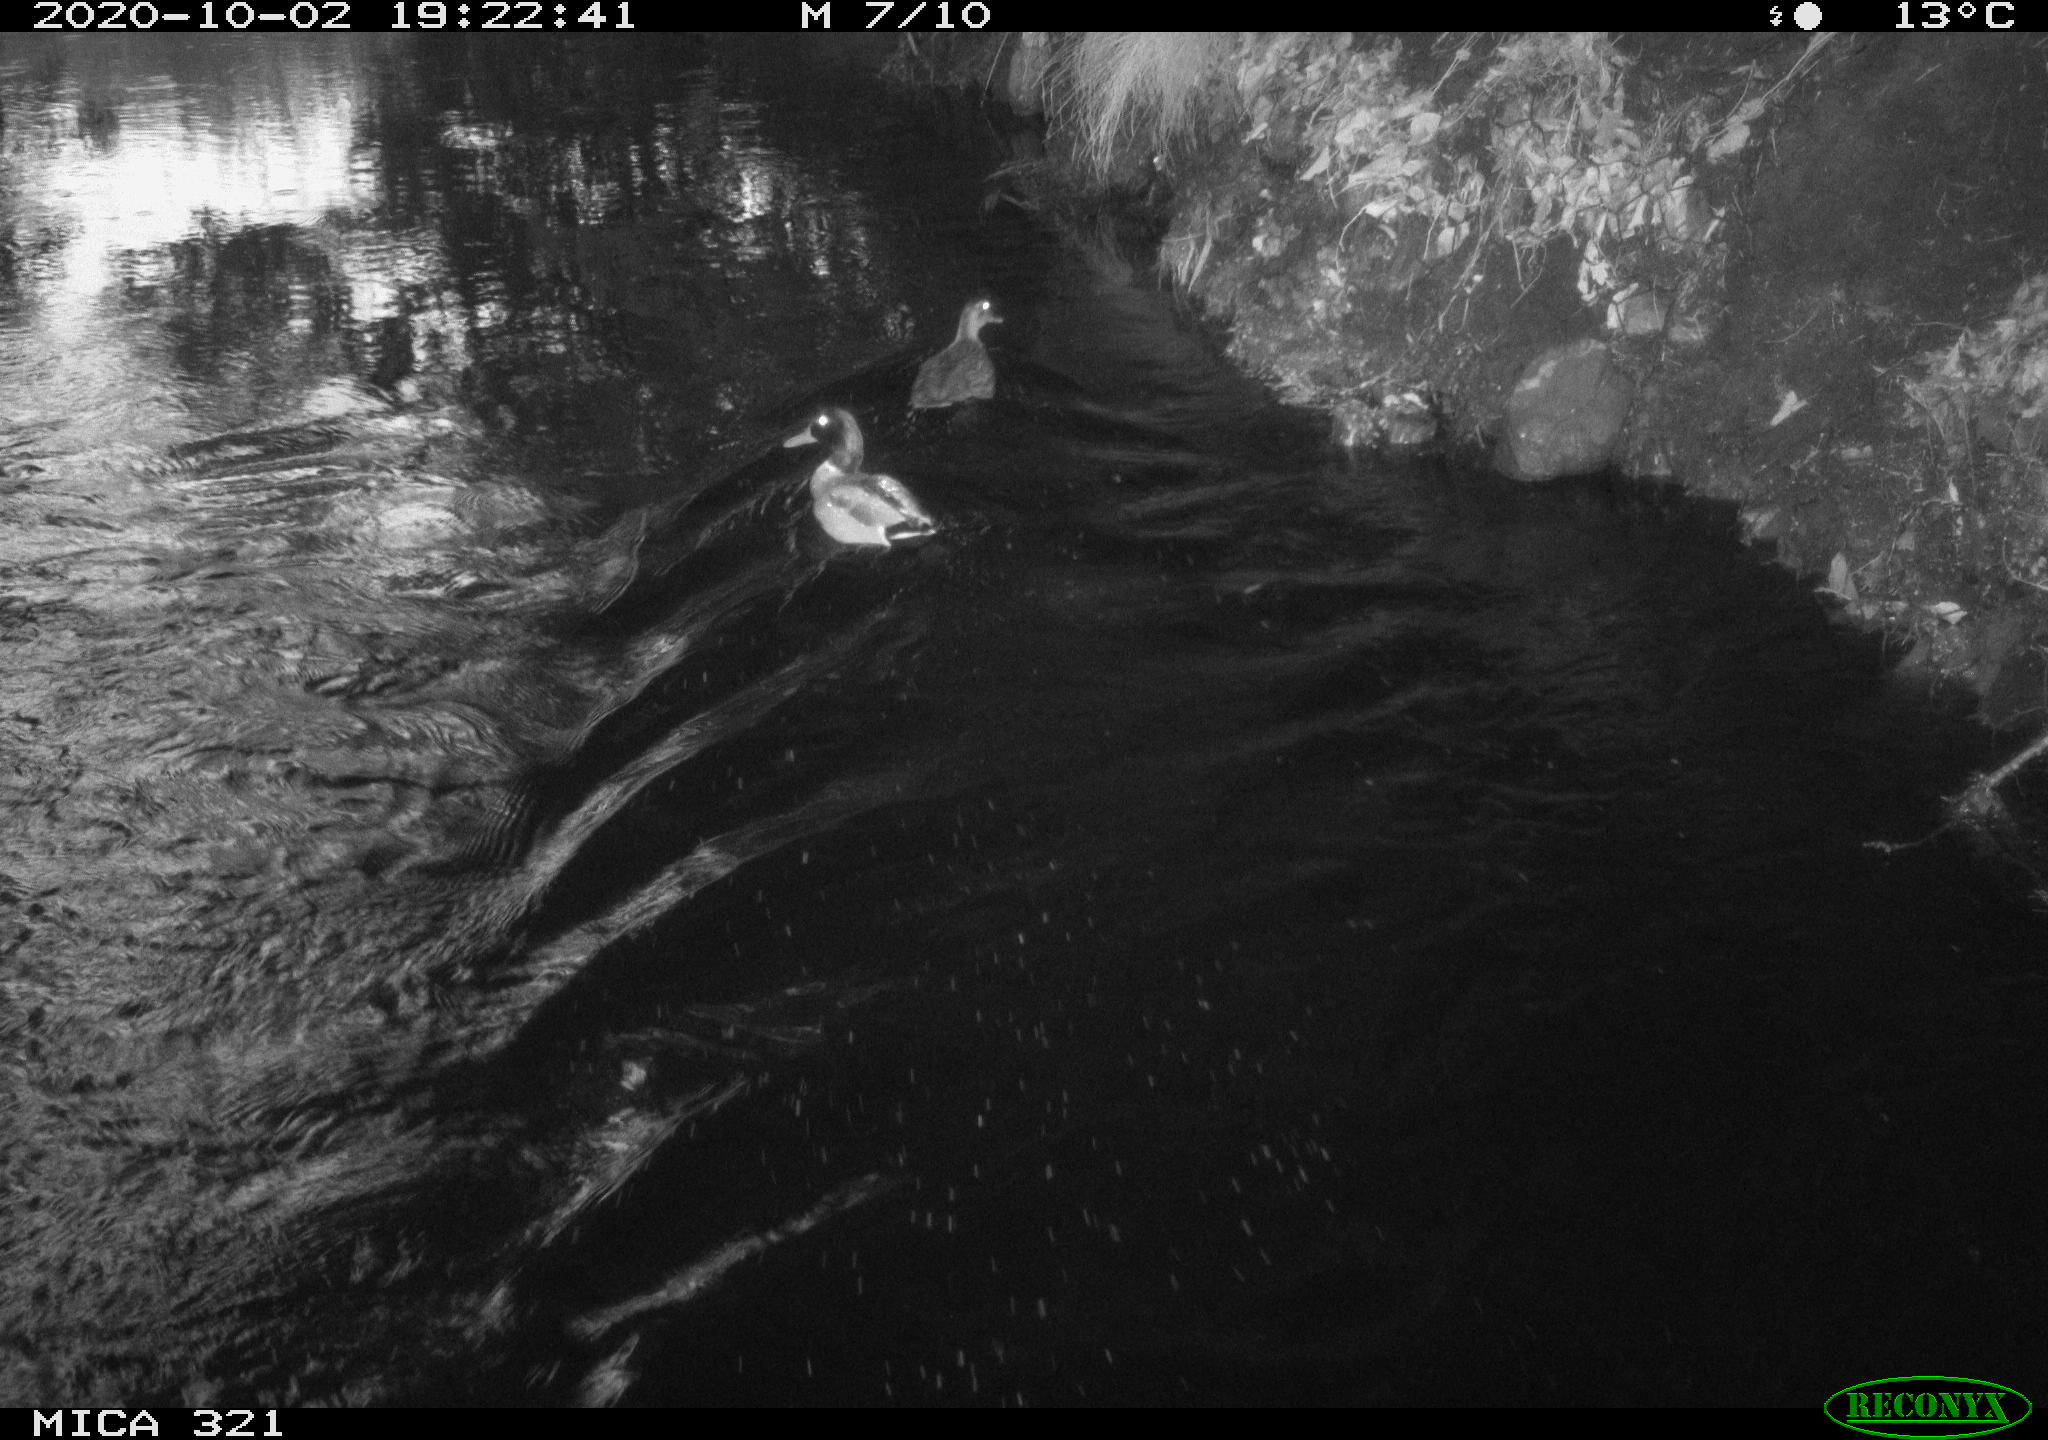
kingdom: Animalia
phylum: Chordata
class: Aves
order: Anseriformes
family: Anatidae
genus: Anas
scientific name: Anas platyrhynchos
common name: Mallard
